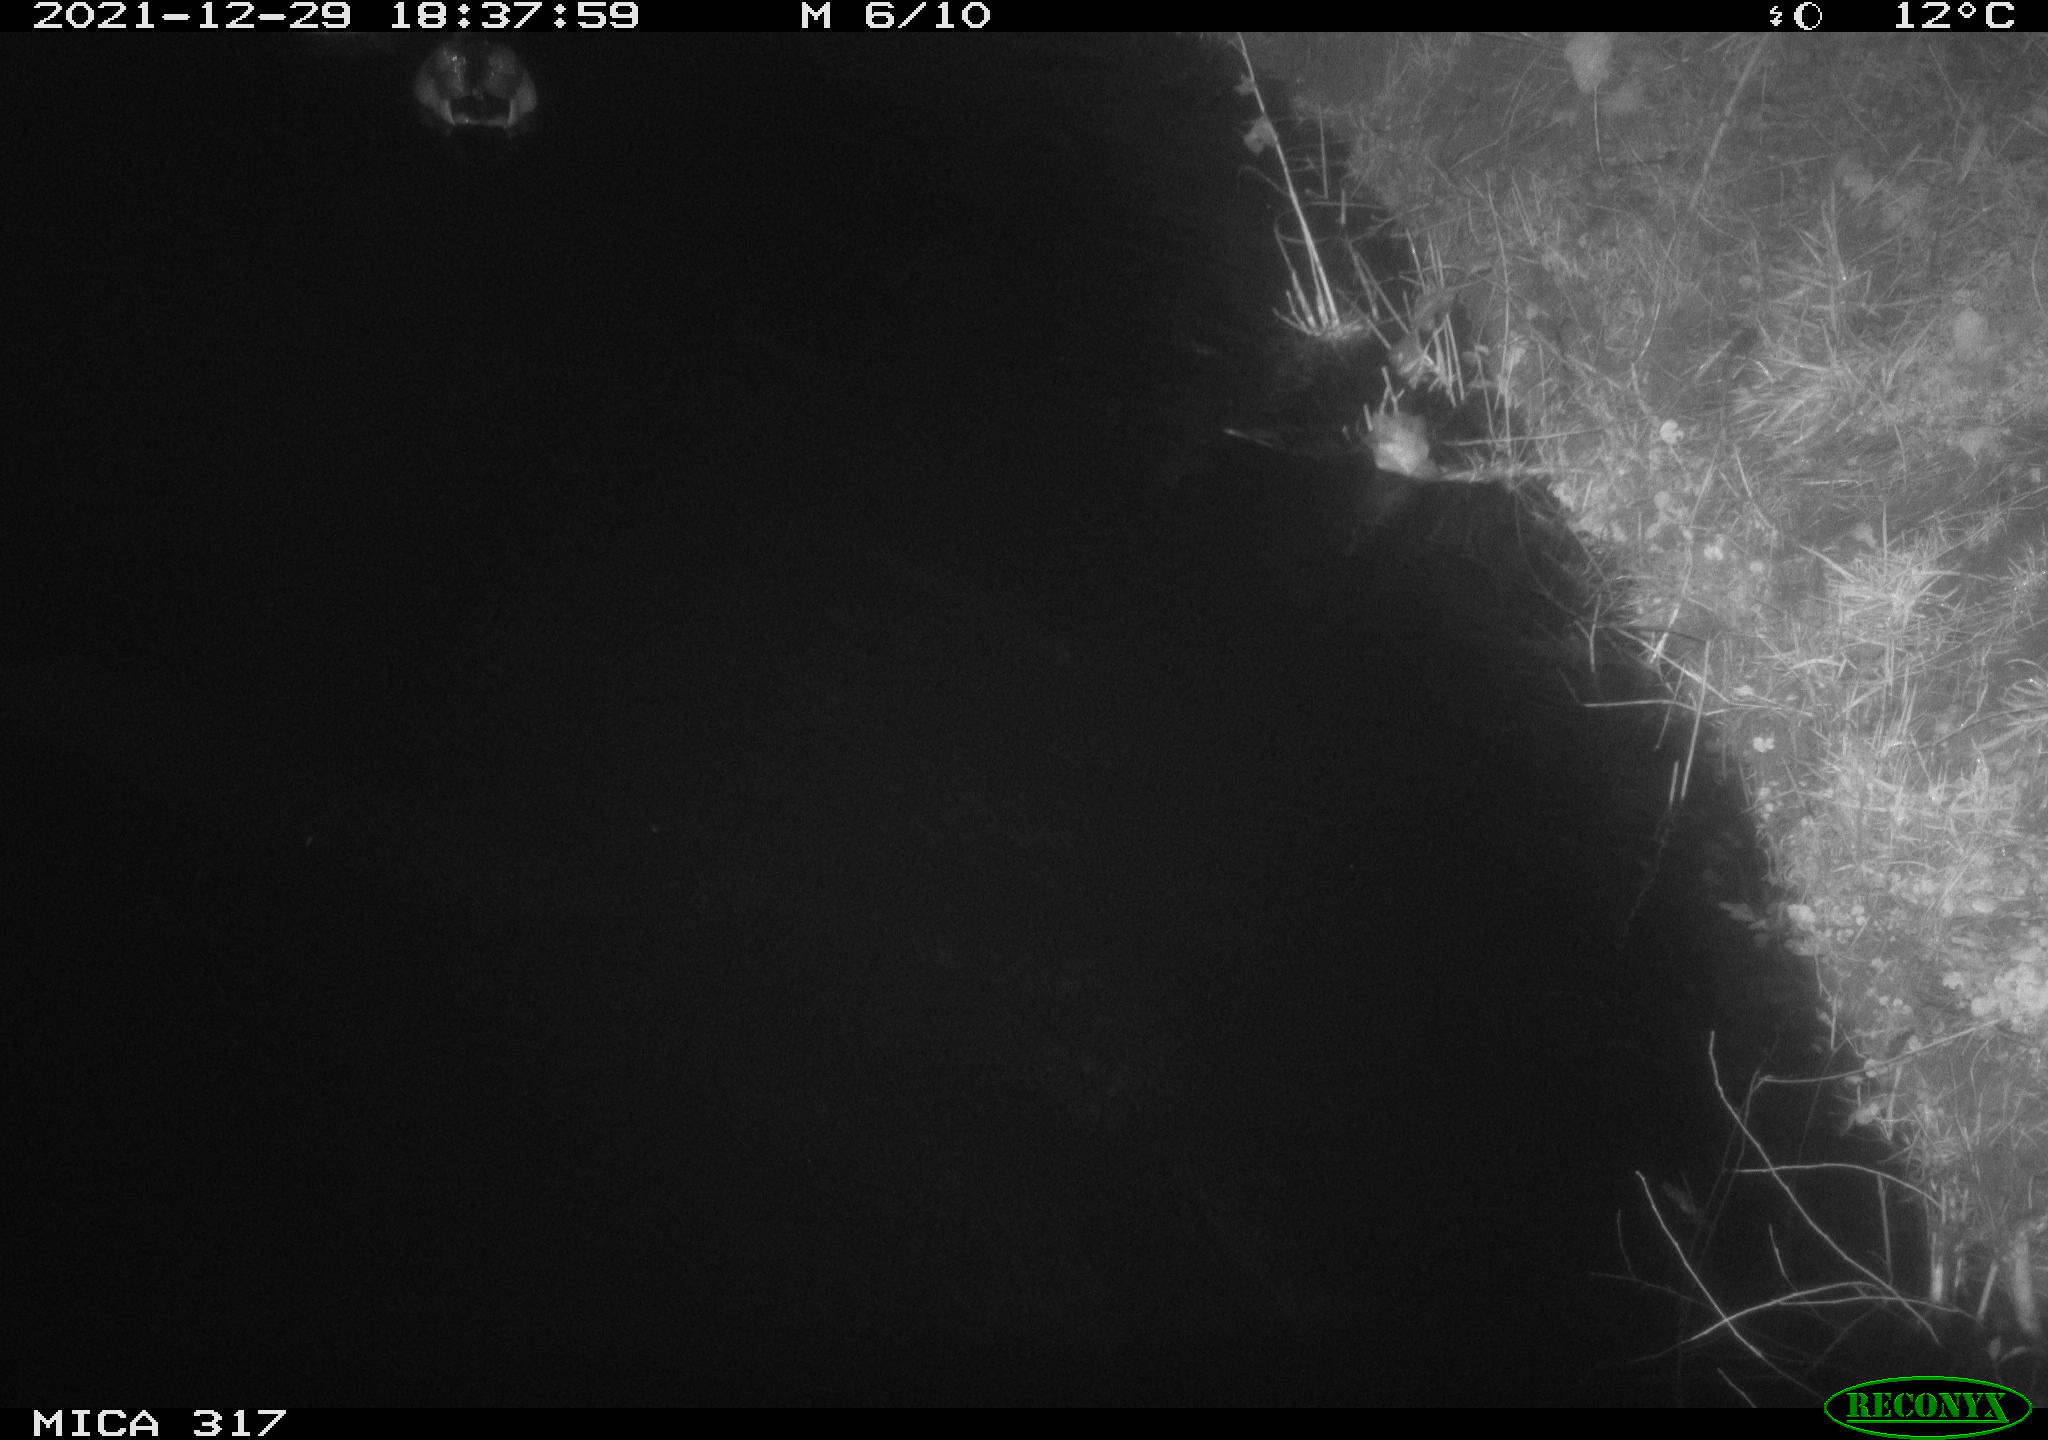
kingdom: Animalia
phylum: Chordata
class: Aves
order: Anseriformes
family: Anatidae
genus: Anas
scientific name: Anas platyrhynchos
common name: Mallard
